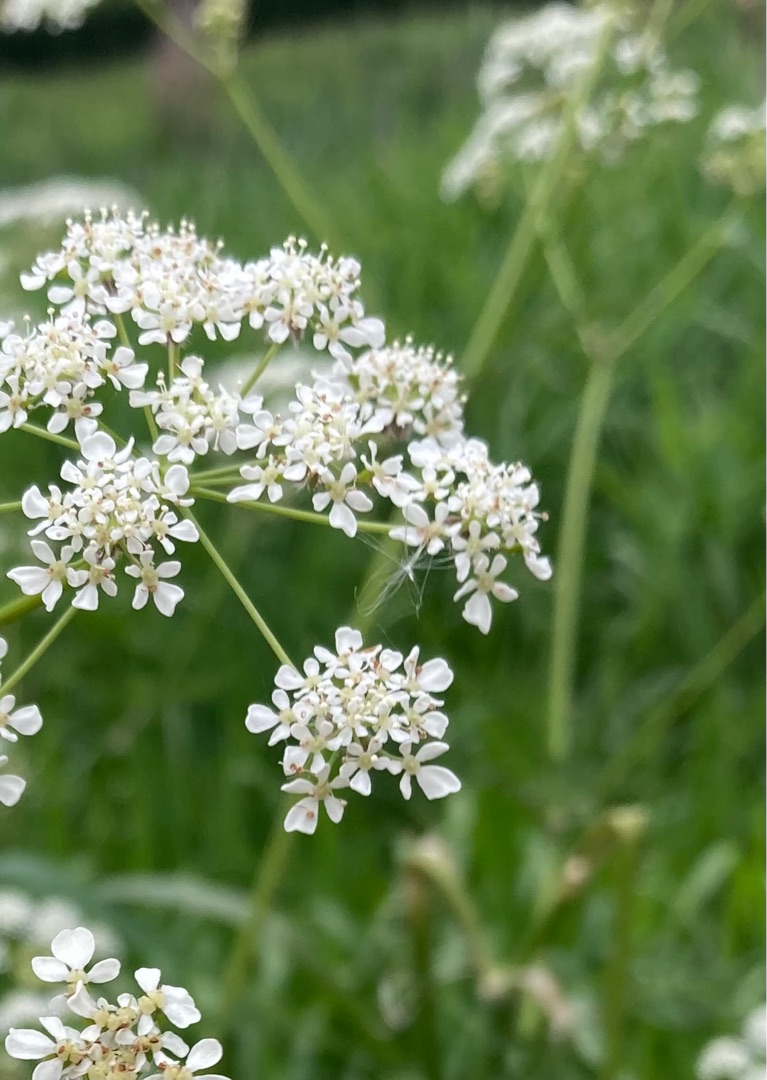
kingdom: Plantae
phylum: Tracheophyta
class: Magnoliopsida
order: Apiales
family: Apiaceae
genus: Anthriscus
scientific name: Anthriscus sylvestris
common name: Vild kørvel
